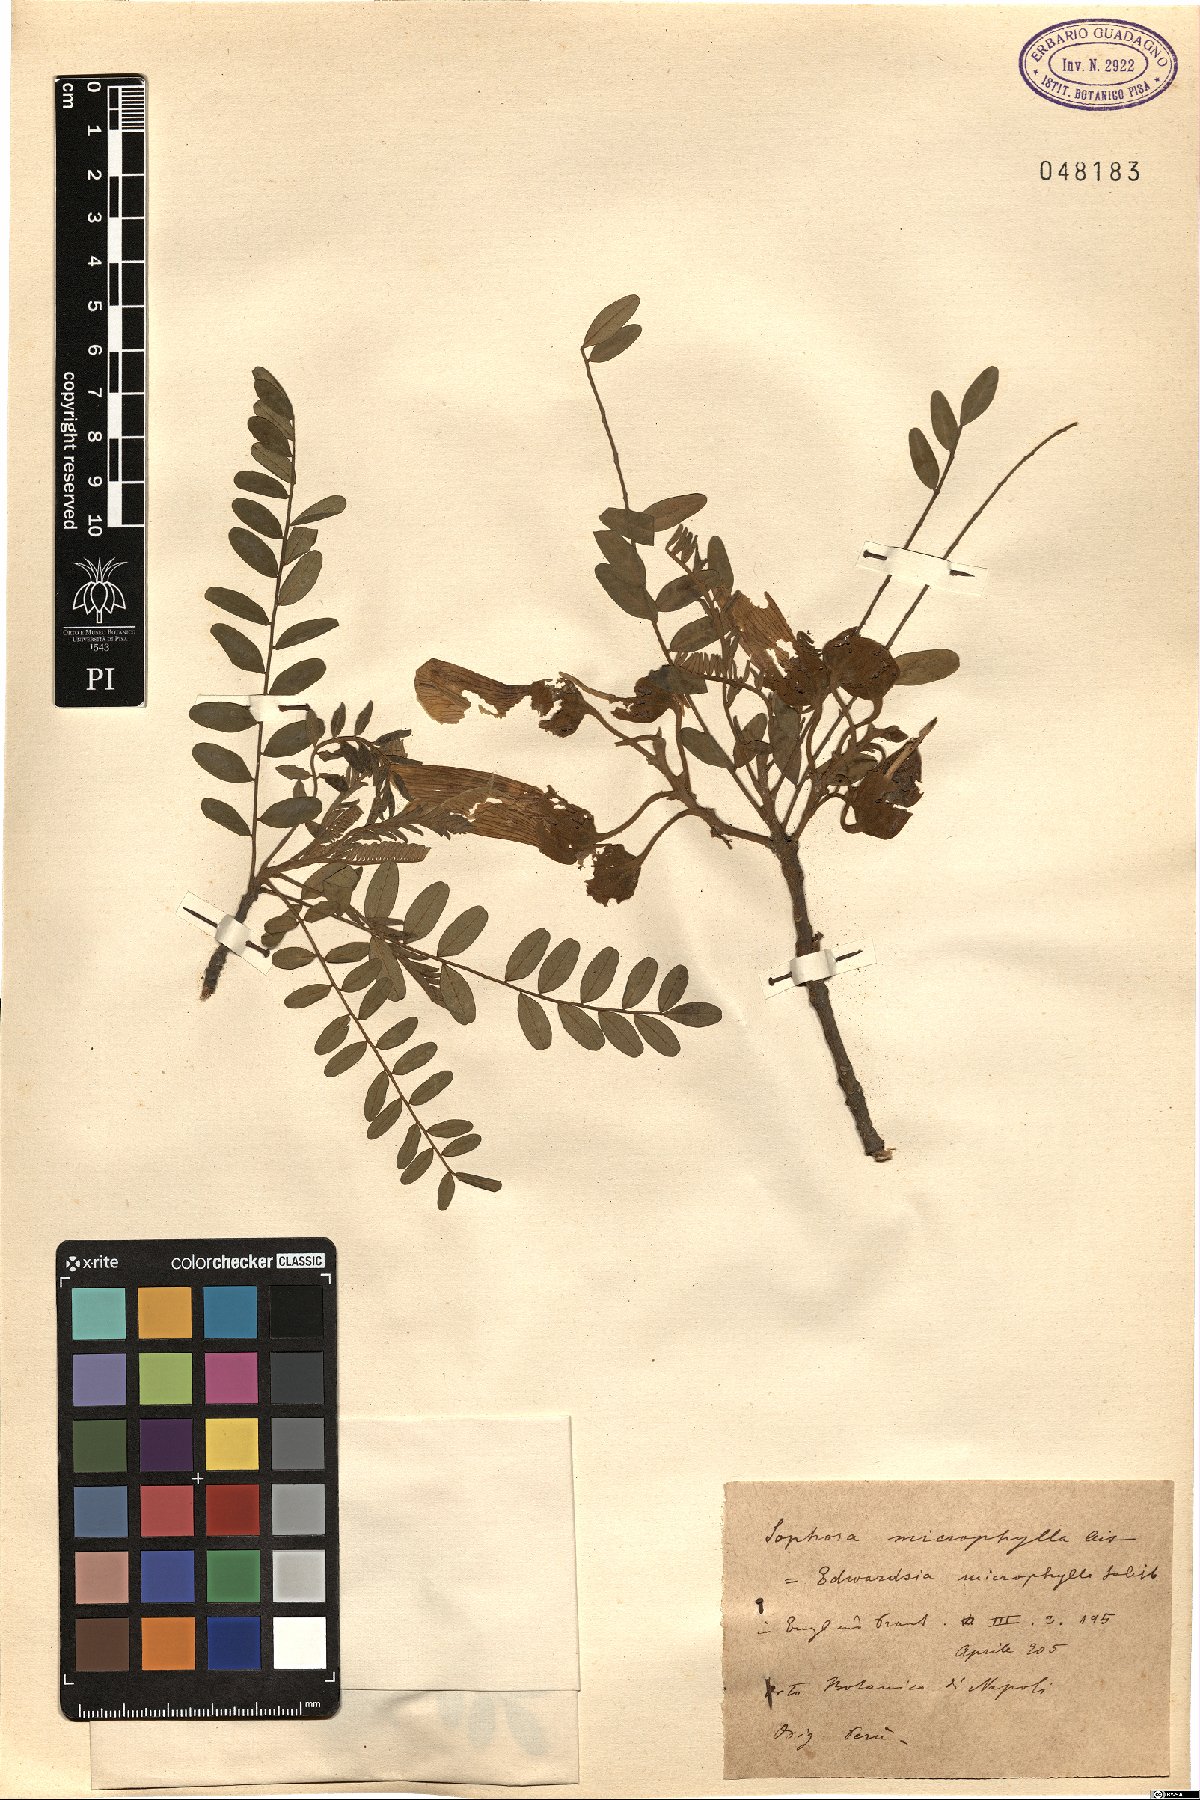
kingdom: Plantae
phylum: Tracheophyta
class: Magnoliopsida
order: Fabales
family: Fabaceae
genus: Sophora
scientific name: Sophora microphylla
